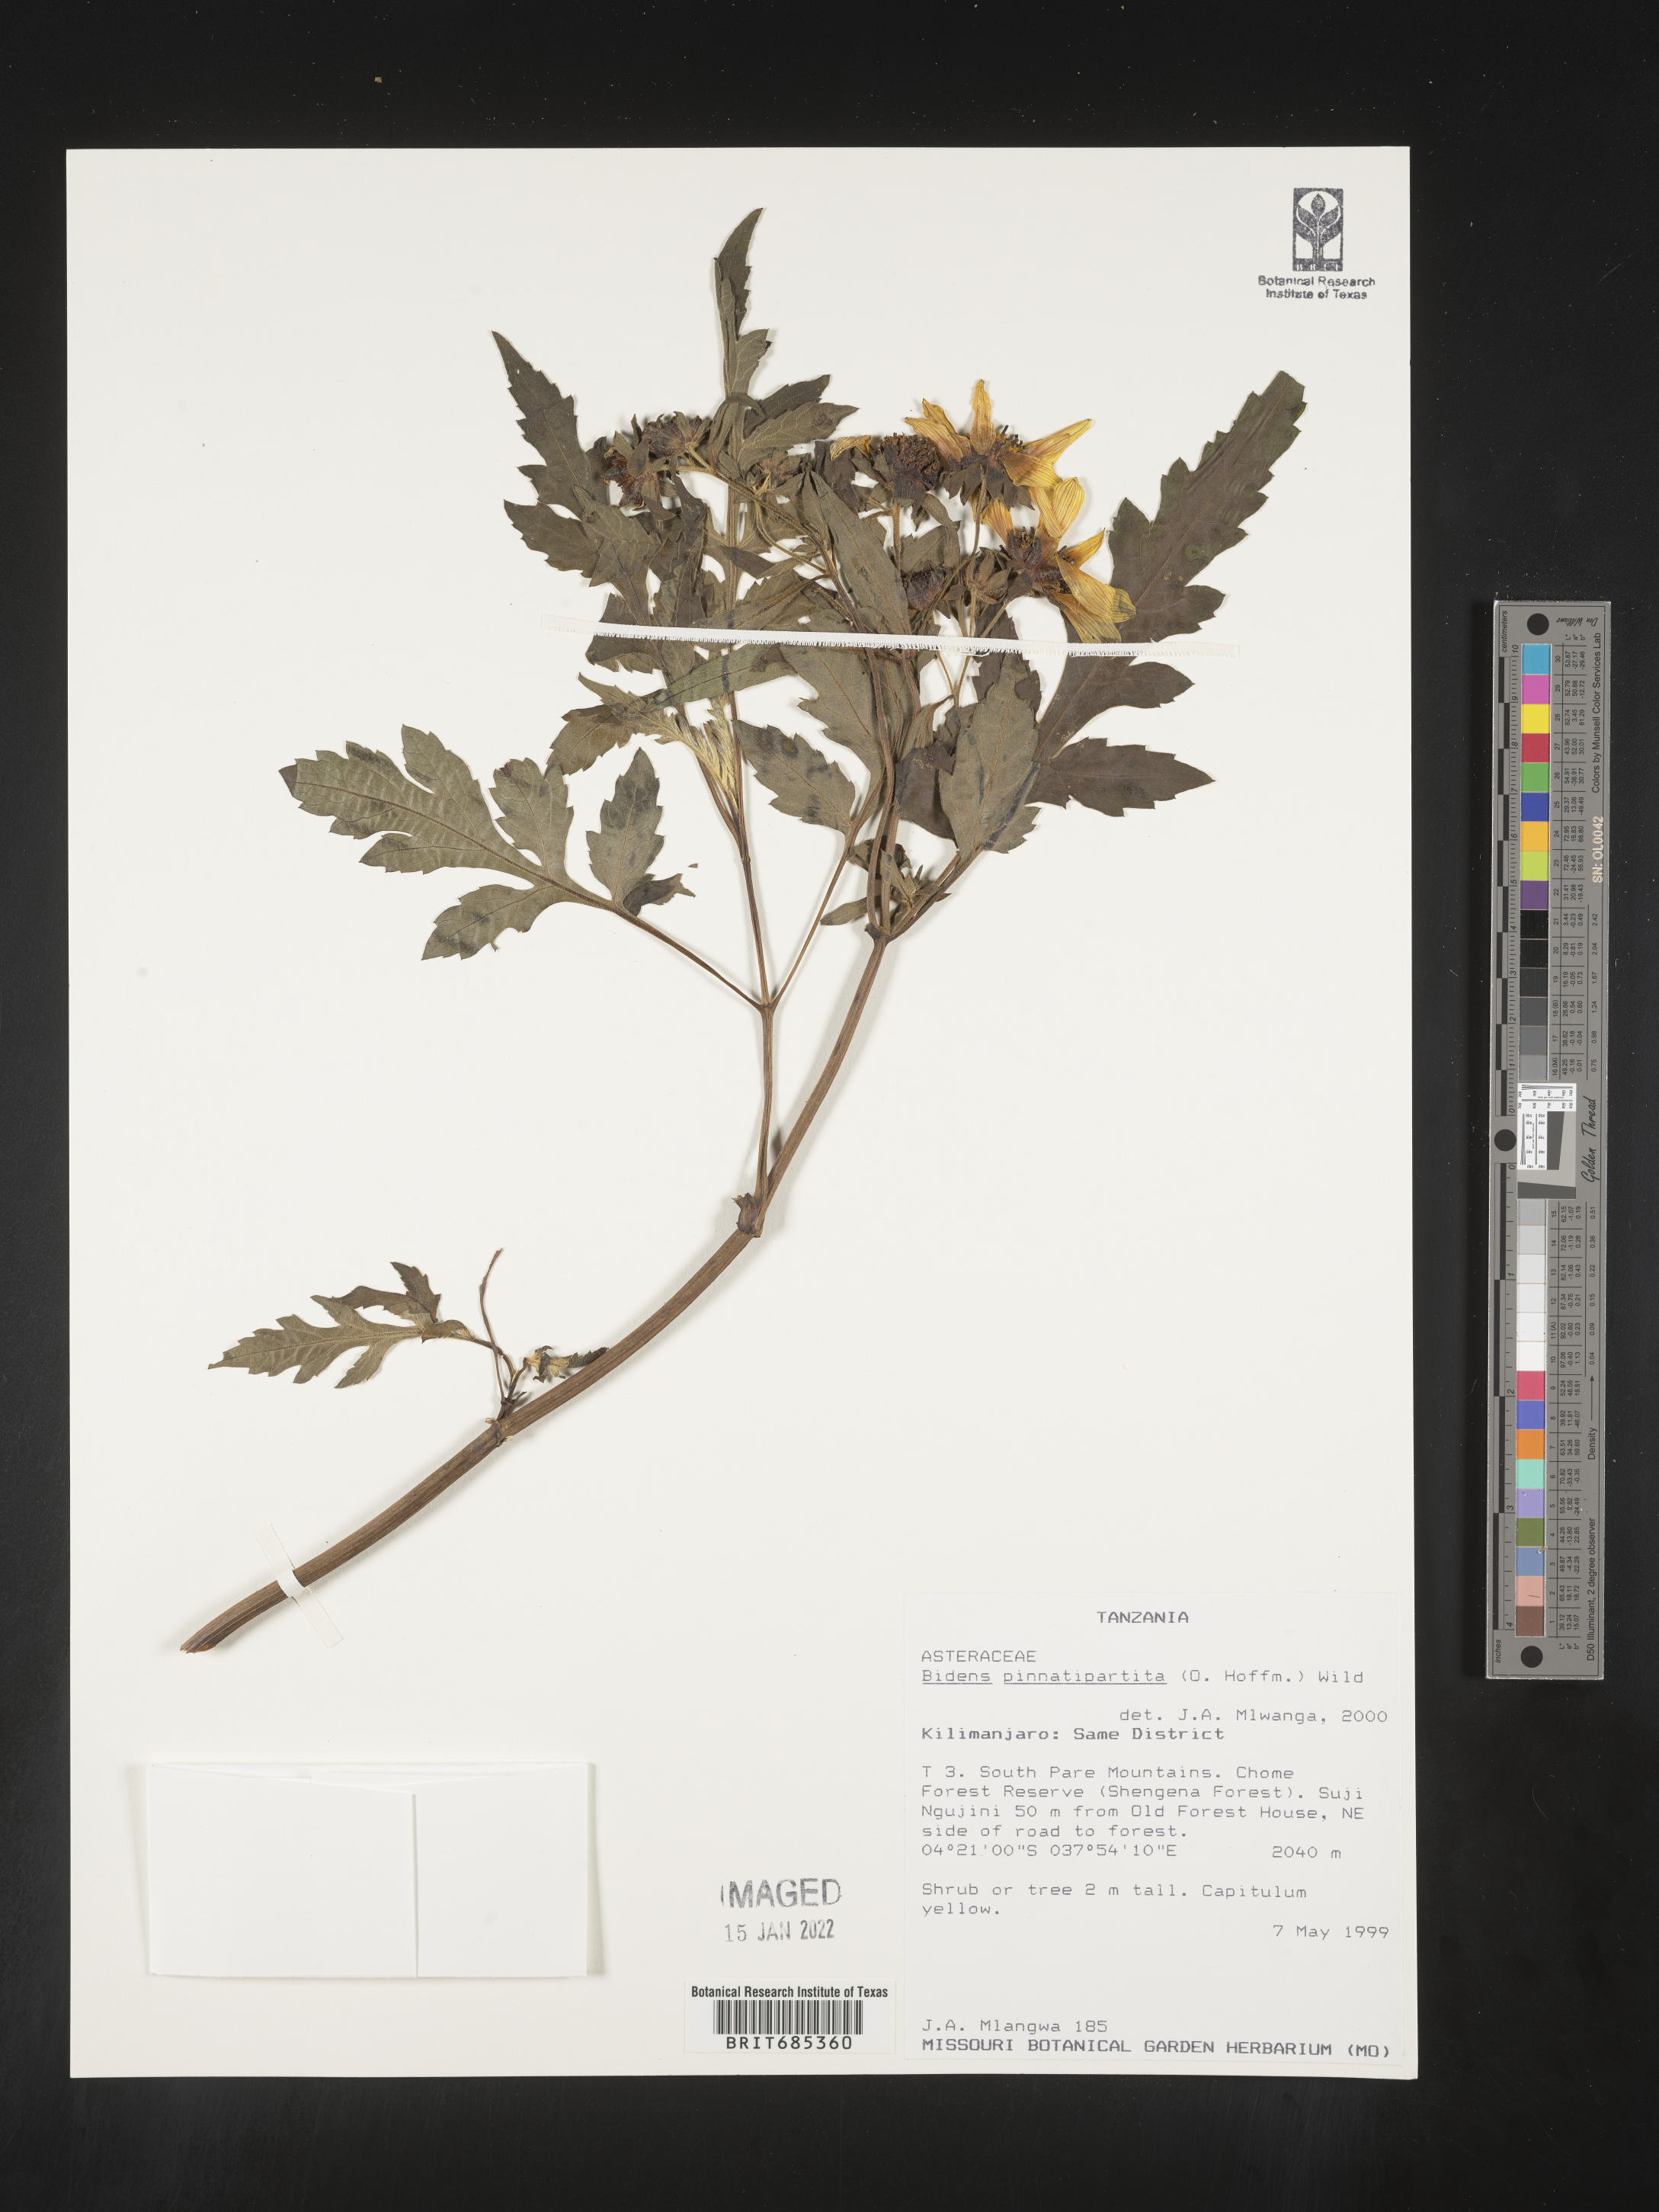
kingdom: Plantae
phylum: Tracheophyta
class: Magnoliopsida
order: Asterales
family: Asteraceae
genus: Bidens
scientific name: Bidens
